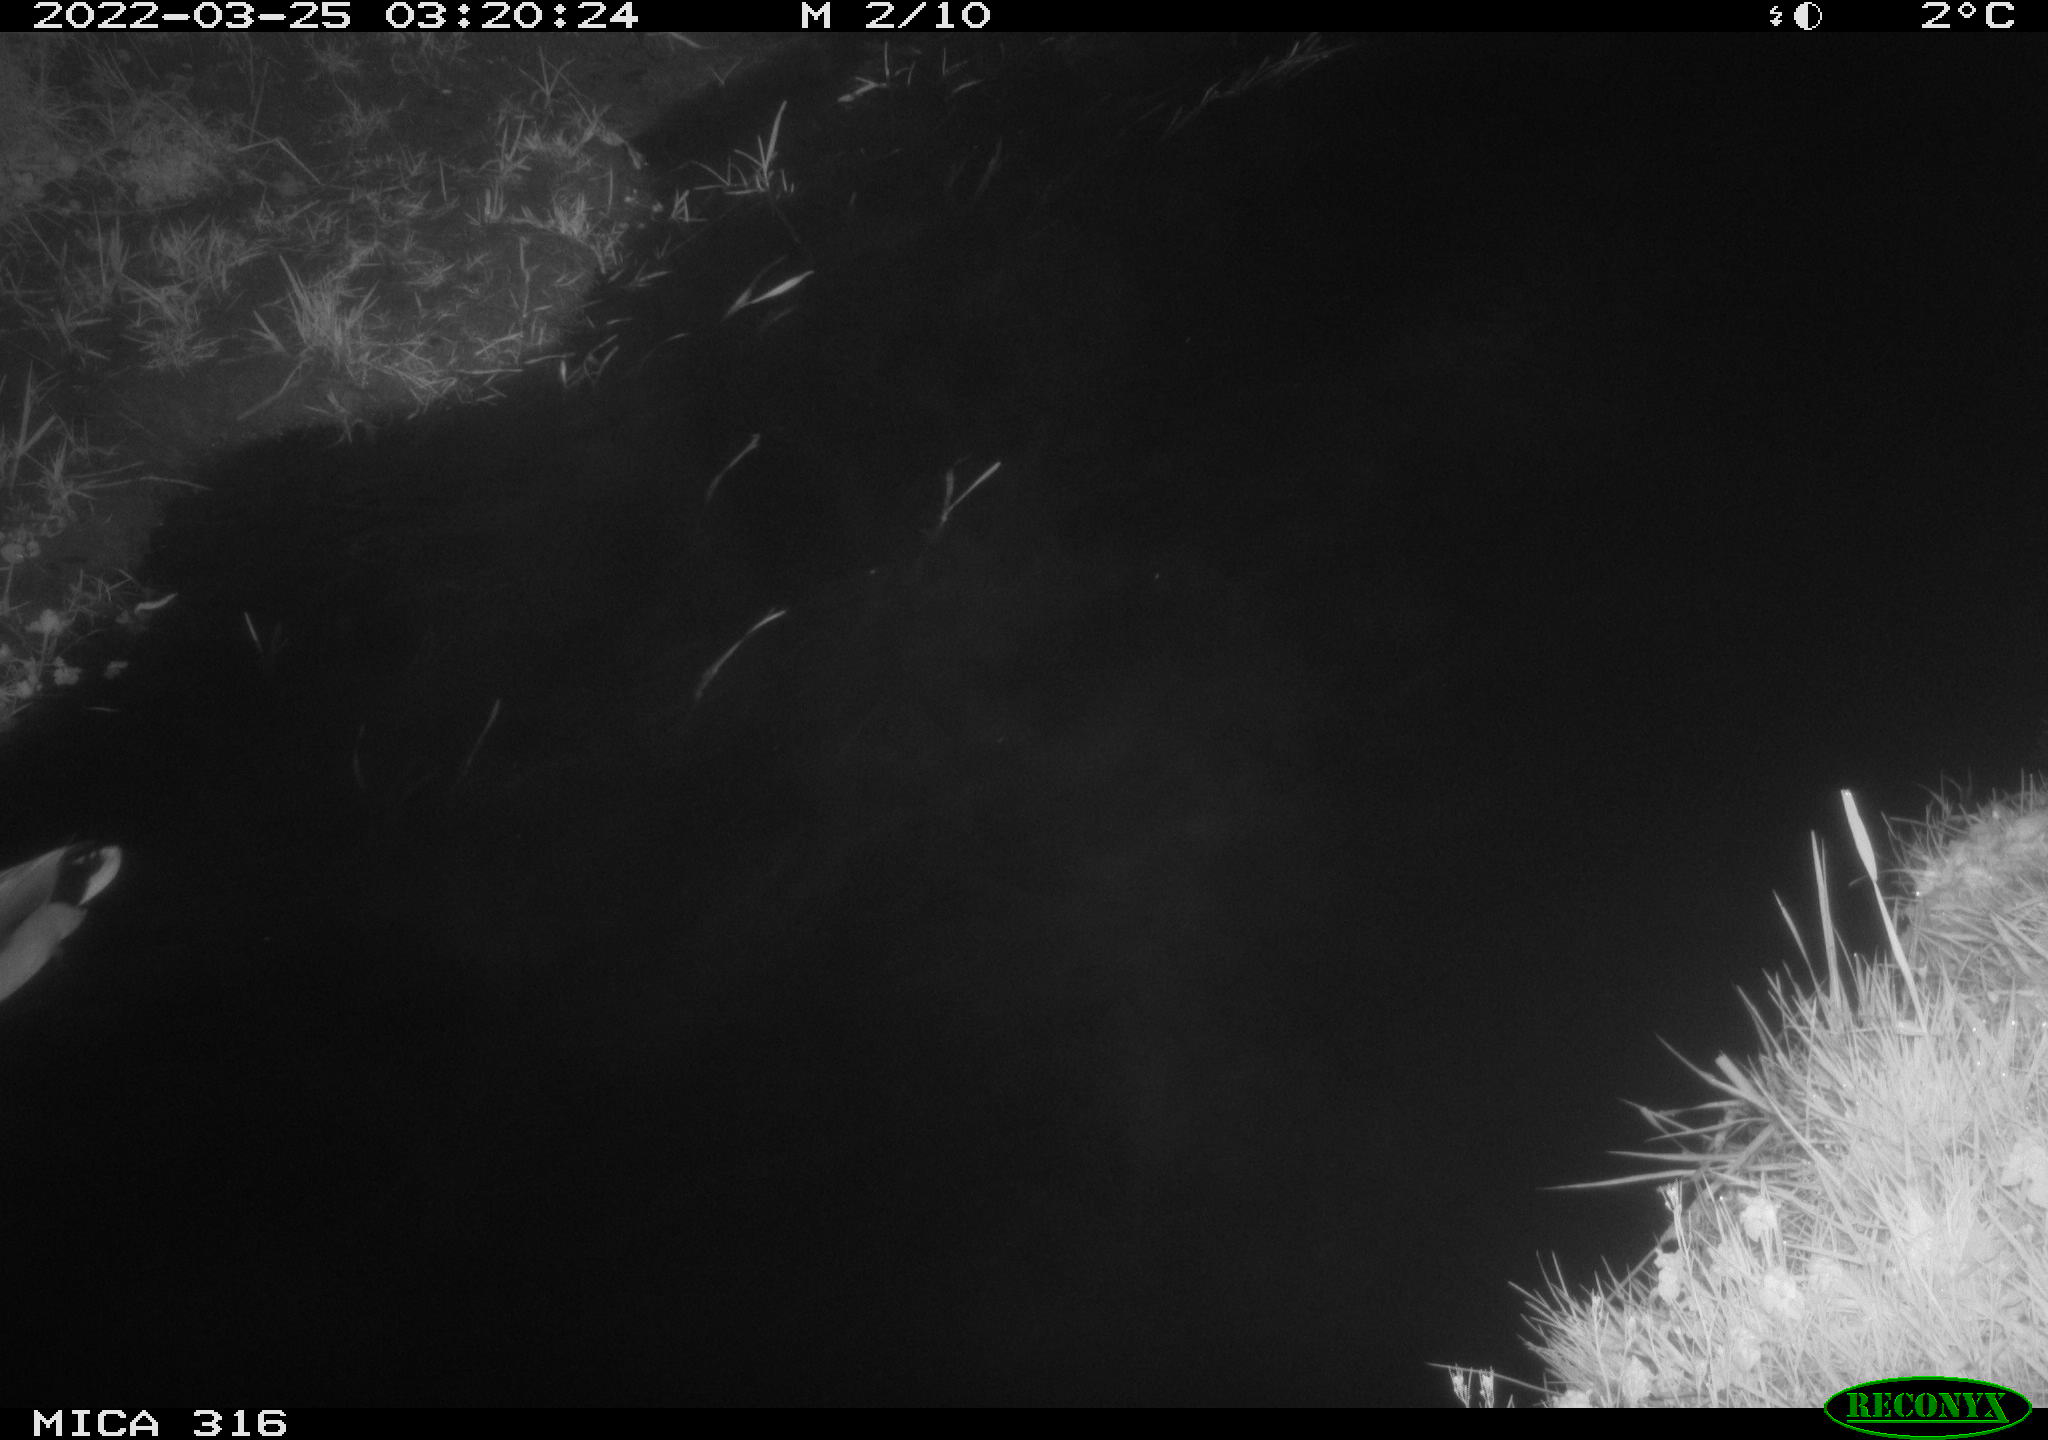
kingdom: Animalia
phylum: Chordata
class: Aves
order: Anseriformes
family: Anatidae
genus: Anas
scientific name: Anas platyrhynchos
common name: Mallard
